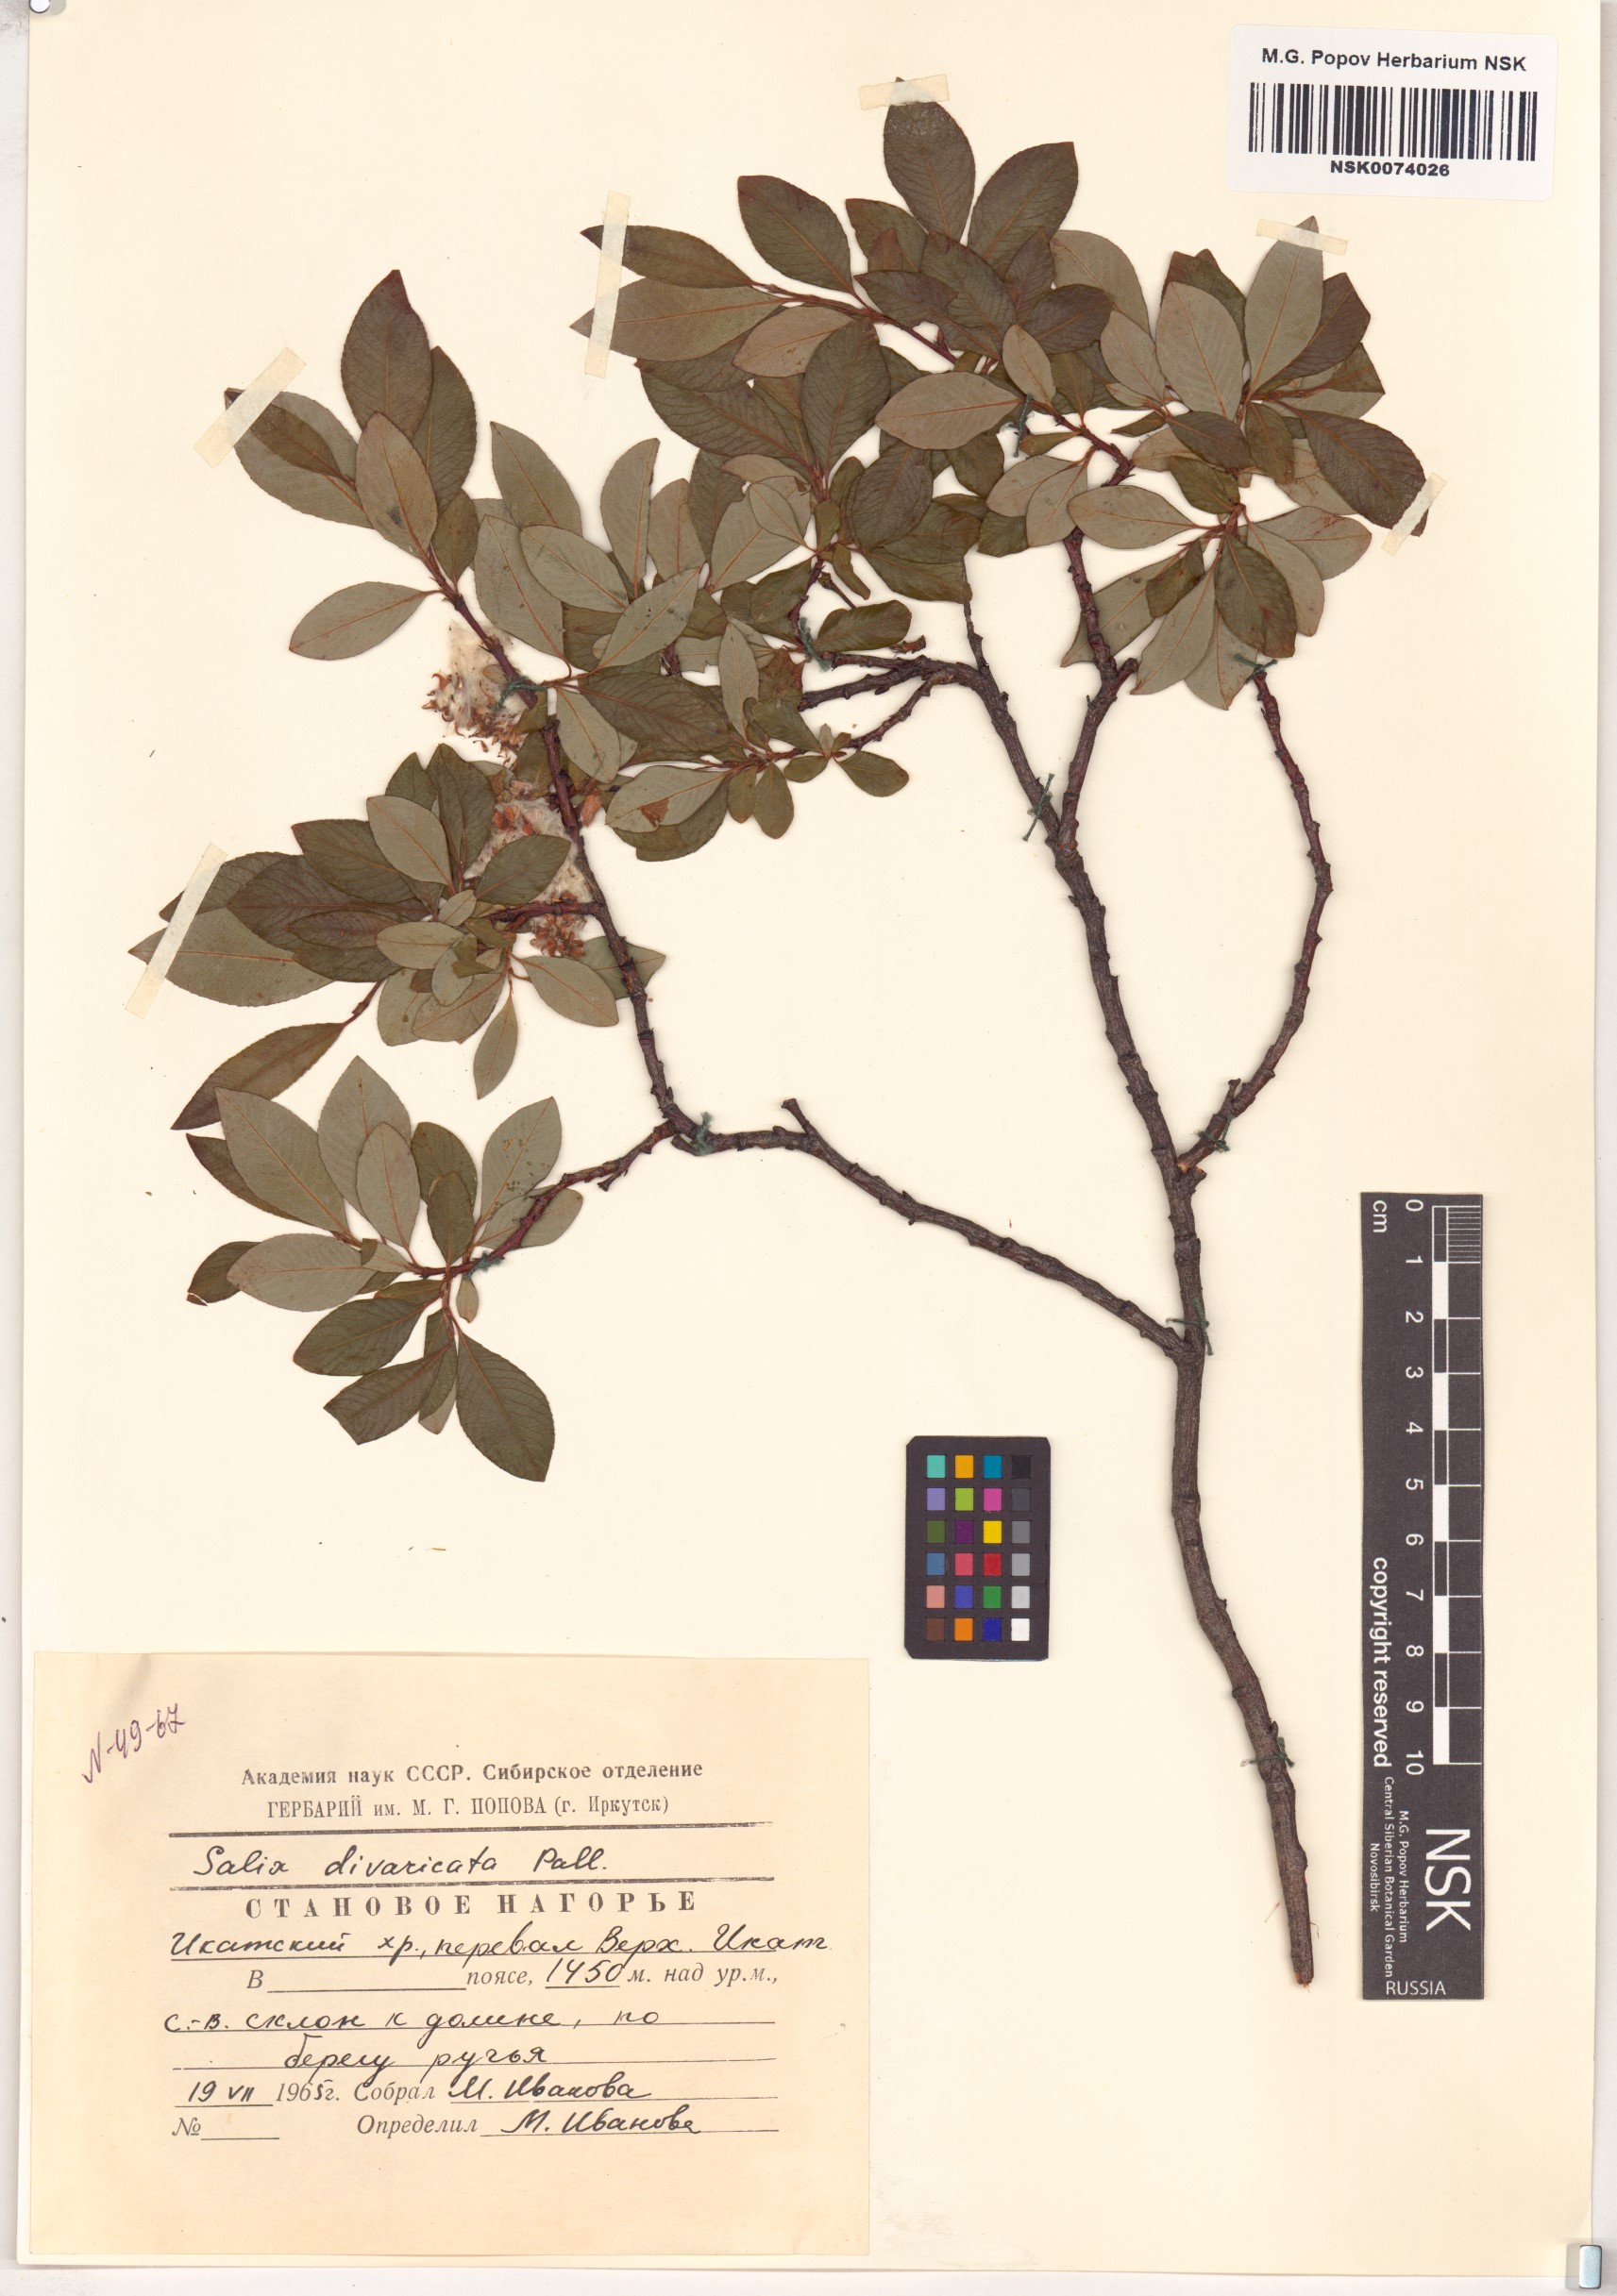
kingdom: Plantae
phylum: Tracheophyta
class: Magnoliopsida
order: Malpighiales
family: Salicaceae
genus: Salix
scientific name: Salix divaricata
